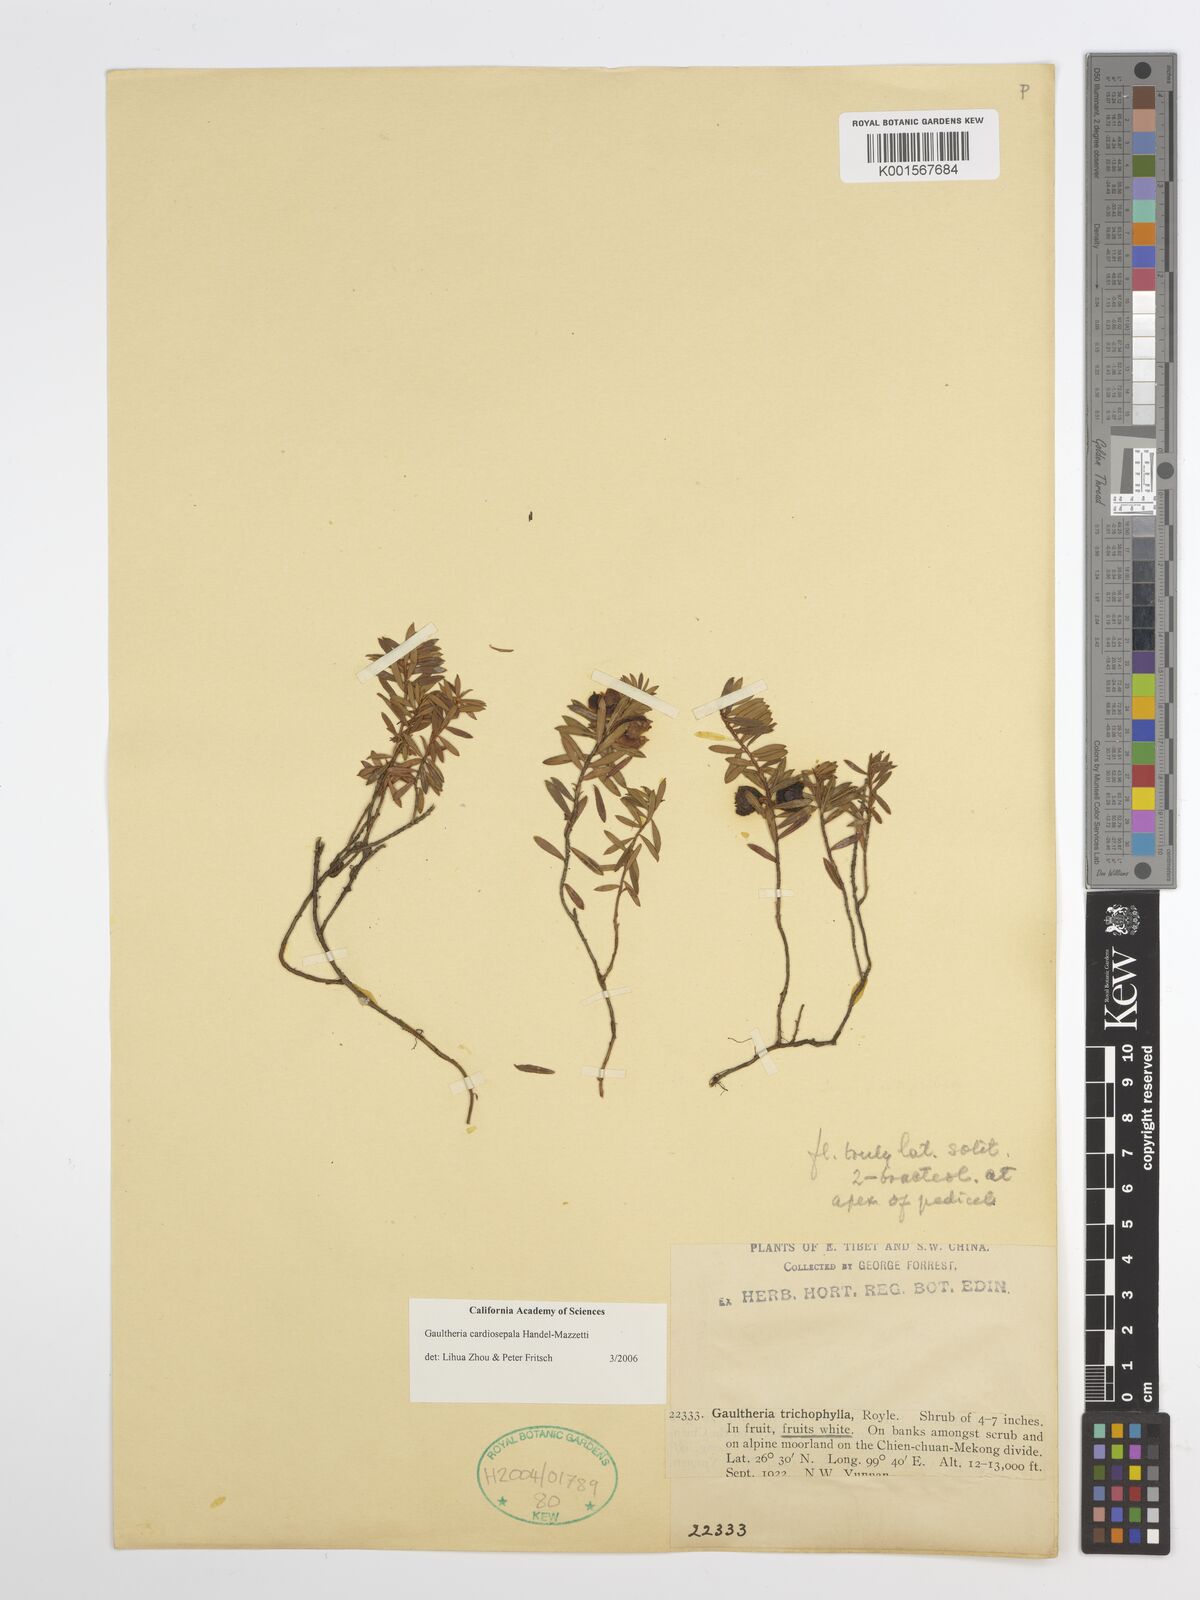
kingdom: Plantae
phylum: Tracheophyta
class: Magnoliopsida
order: Ericales
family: Ericaceae
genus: Gaultheria
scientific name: Gaultheria cardiosepala
